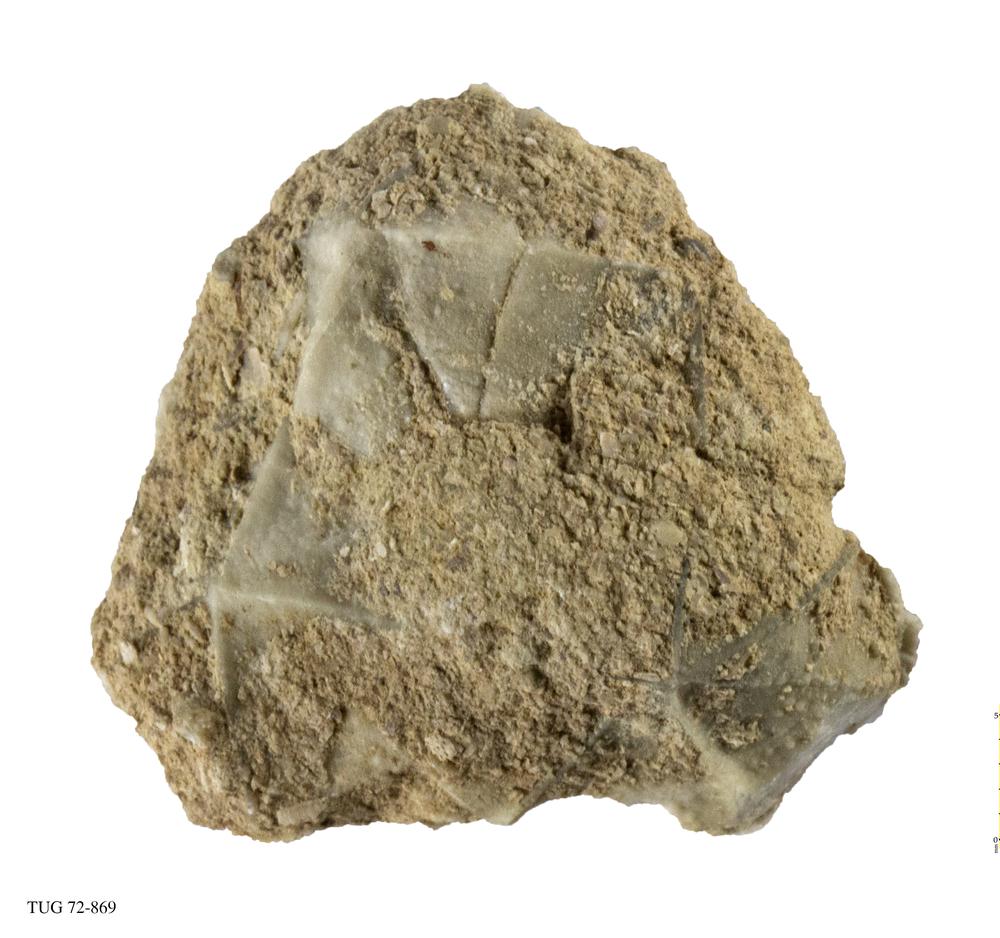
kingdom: Animalia
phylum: Echinodermata
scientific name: Echinodermata
